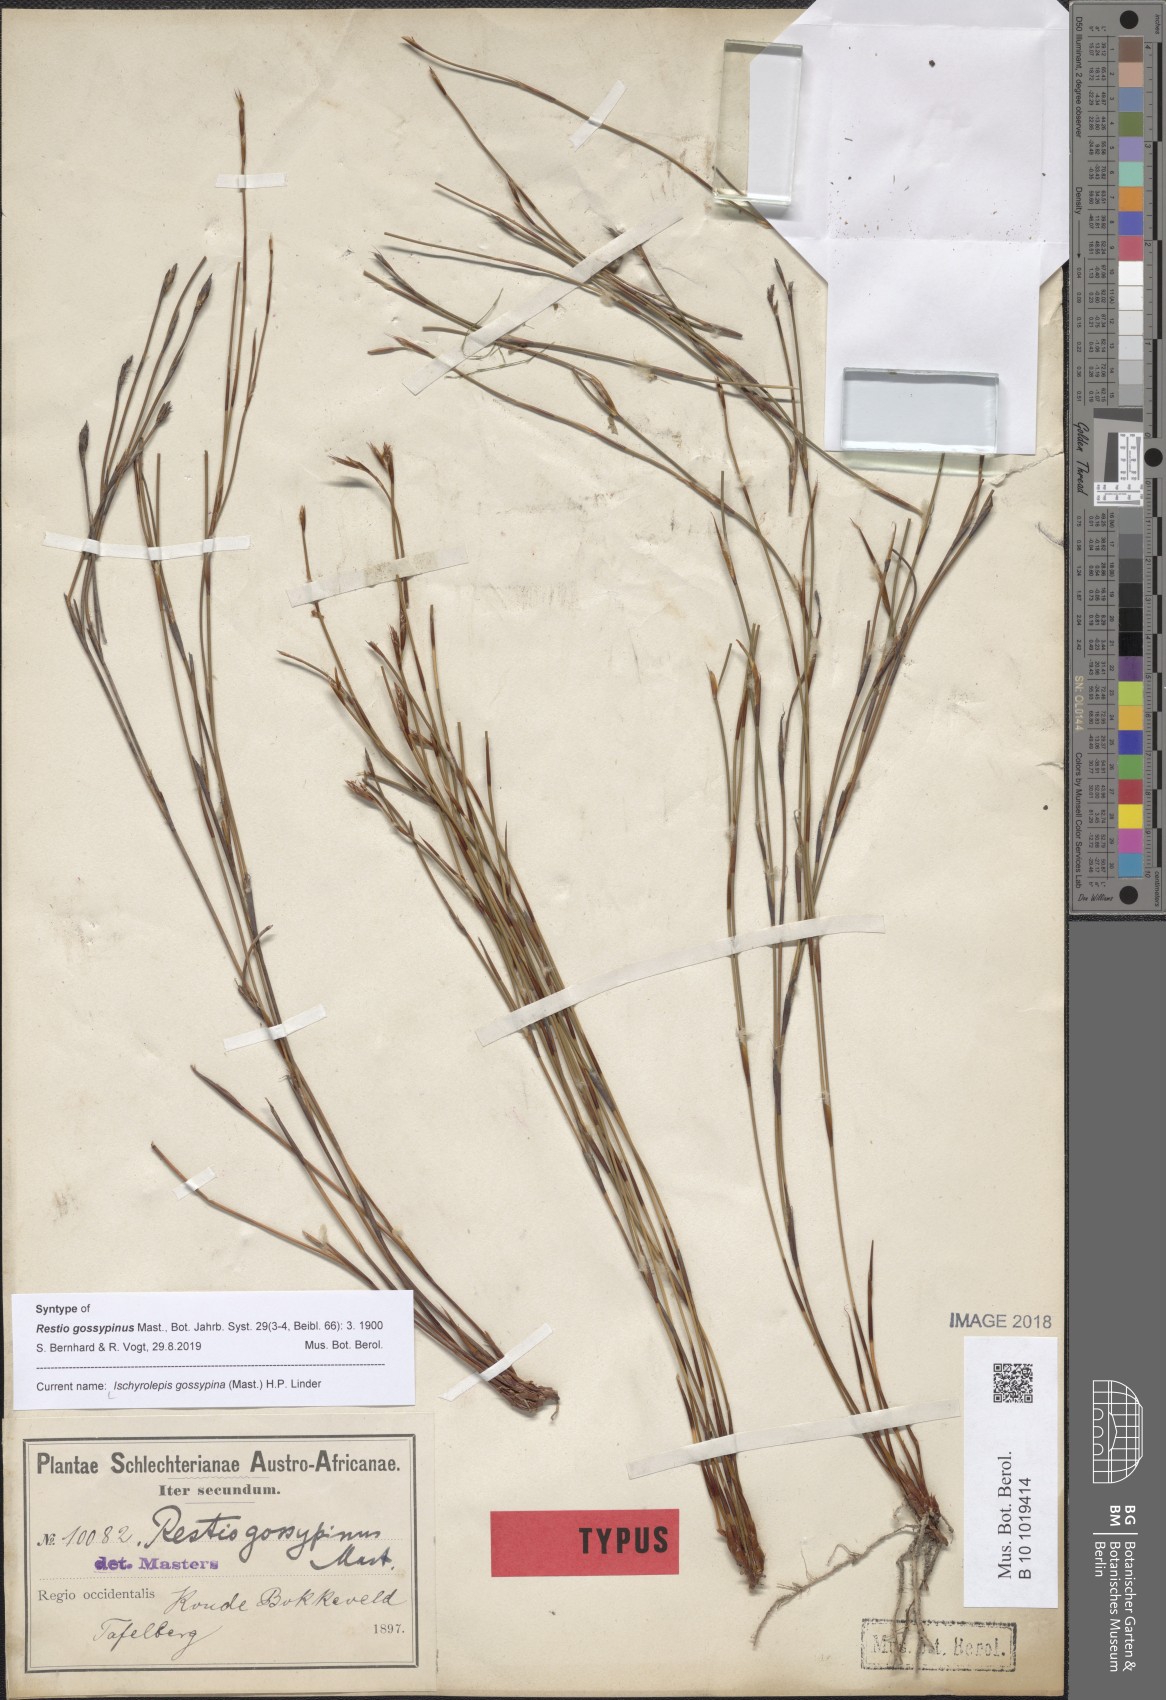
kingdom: Plantae
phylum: Tracheophyta
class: Liliopsida
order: Poales
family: Restionaceae
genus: Restio
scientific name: Restio gossypinus
